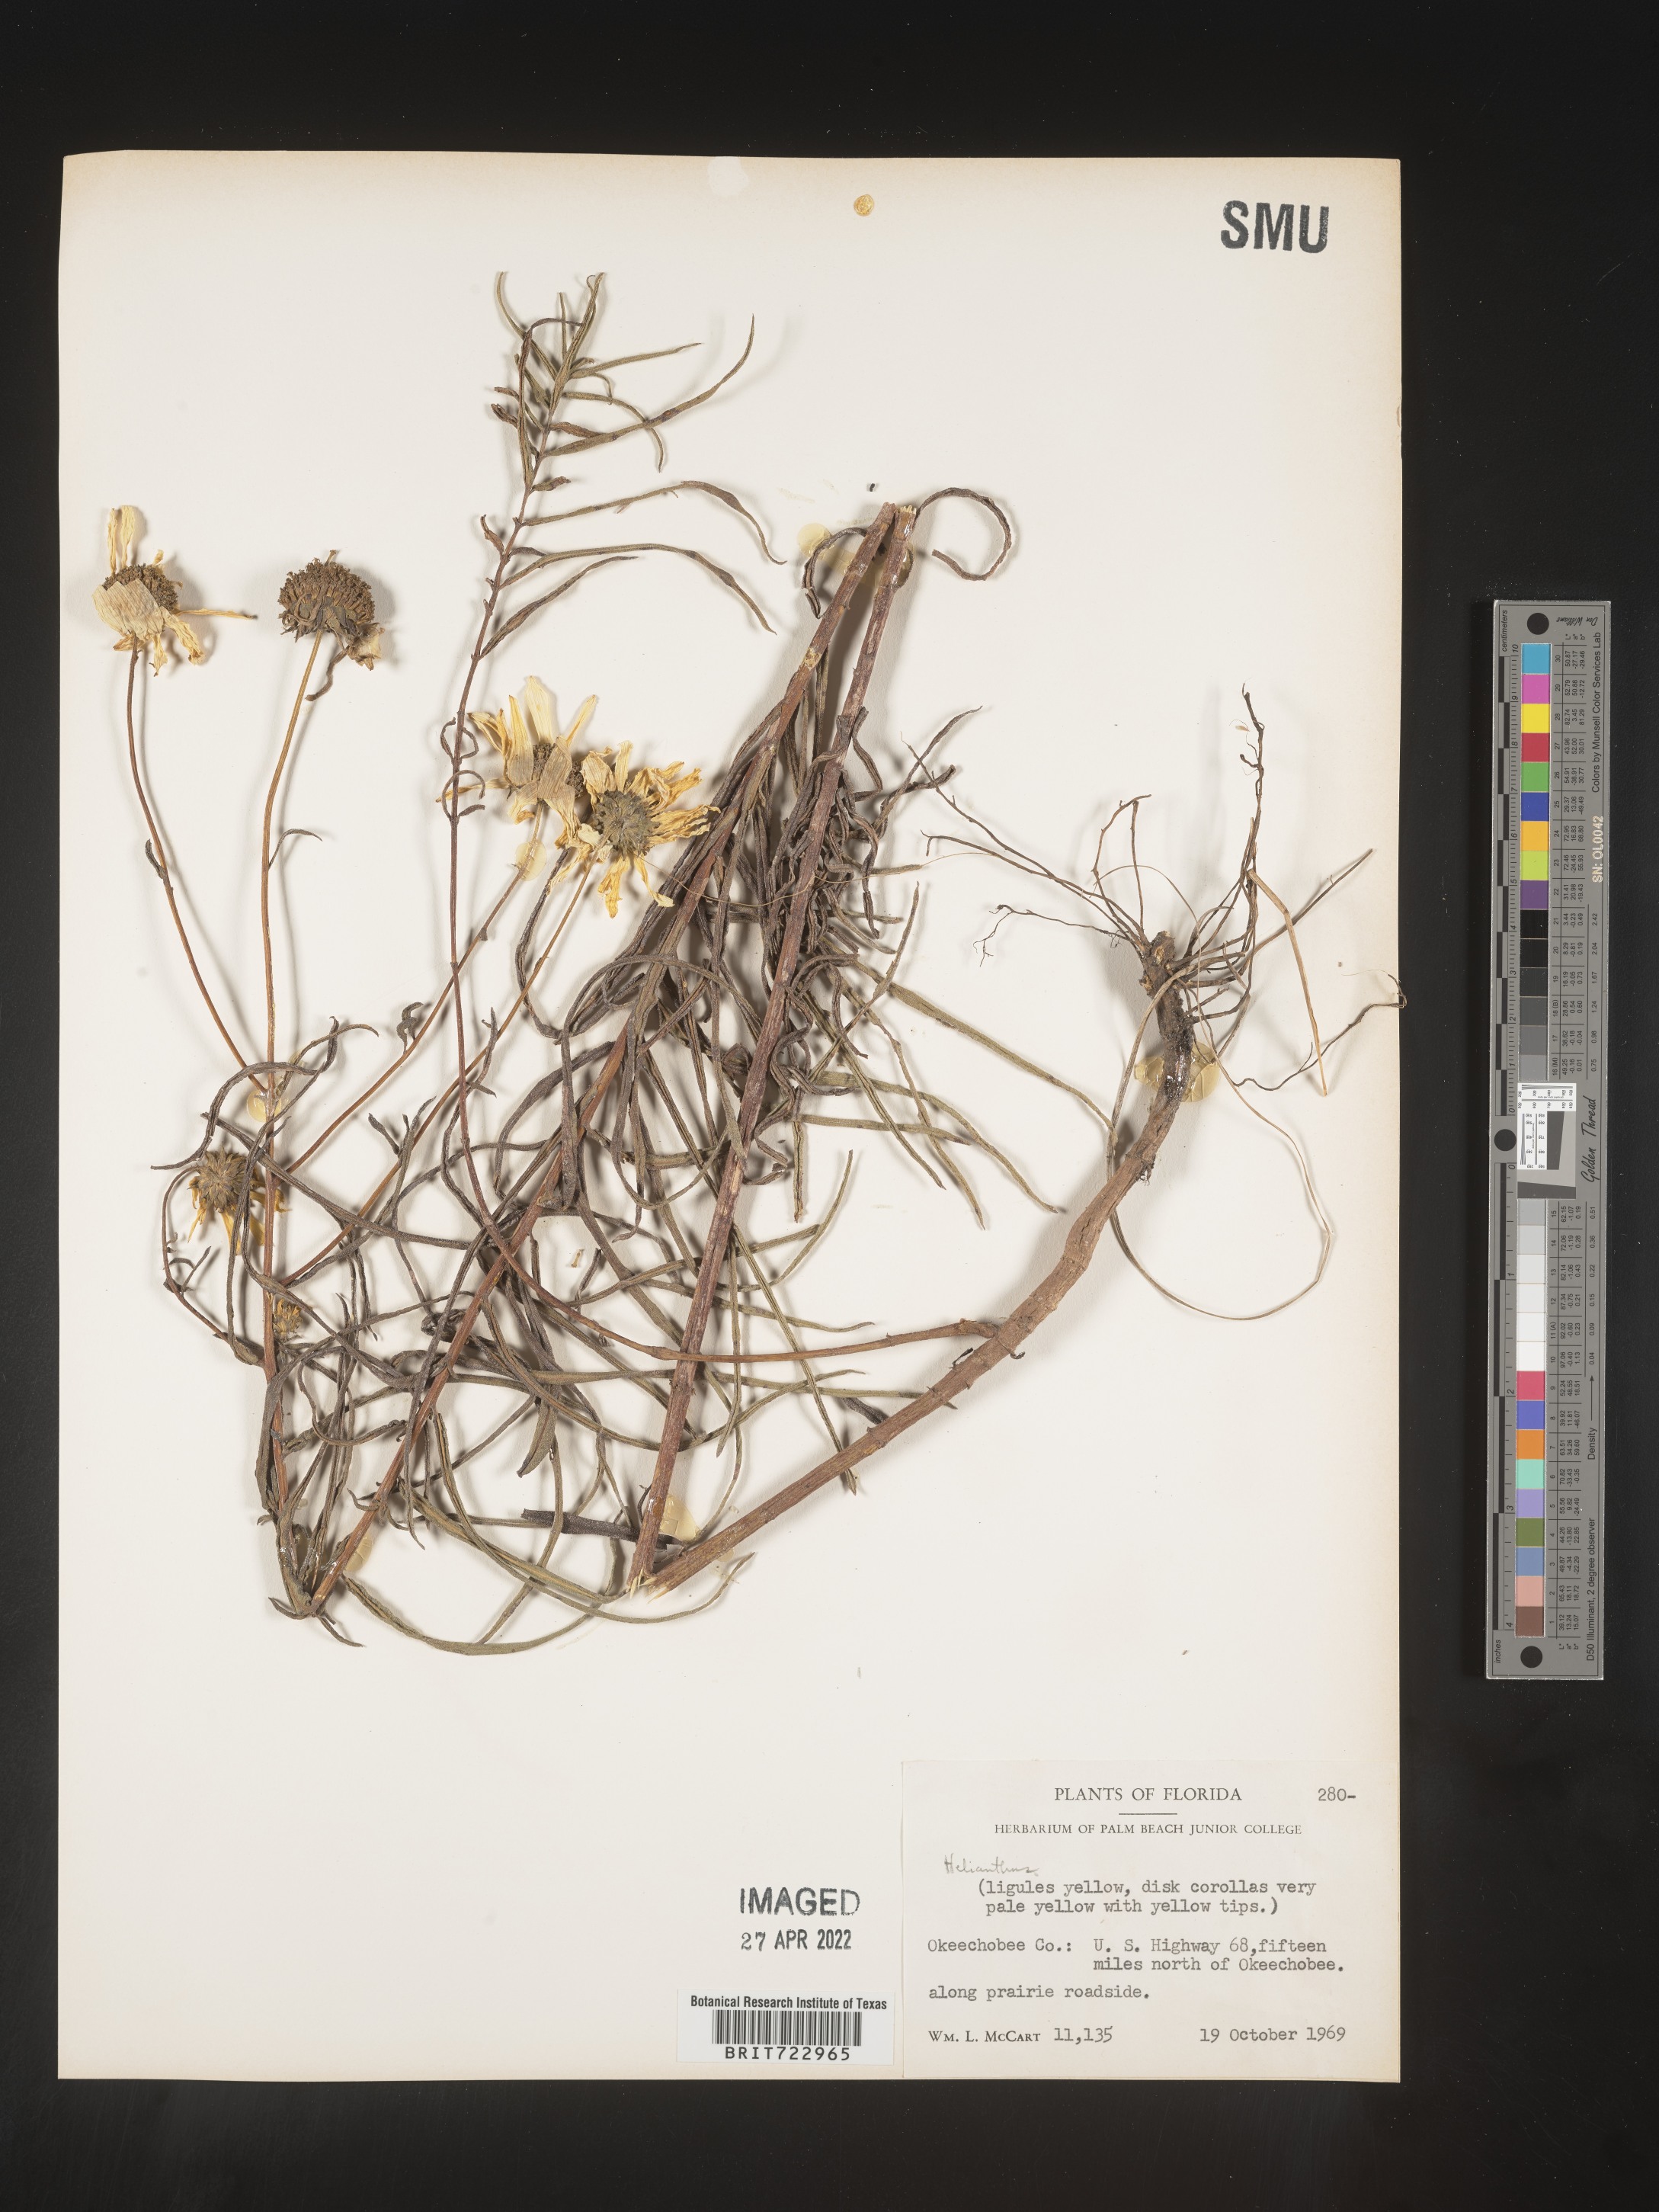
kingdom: Plantae
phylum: Tracheophyta
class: Magnoliopsida
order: Asterales
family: Asteraceae
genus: Helianthus
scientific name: Helianthus
